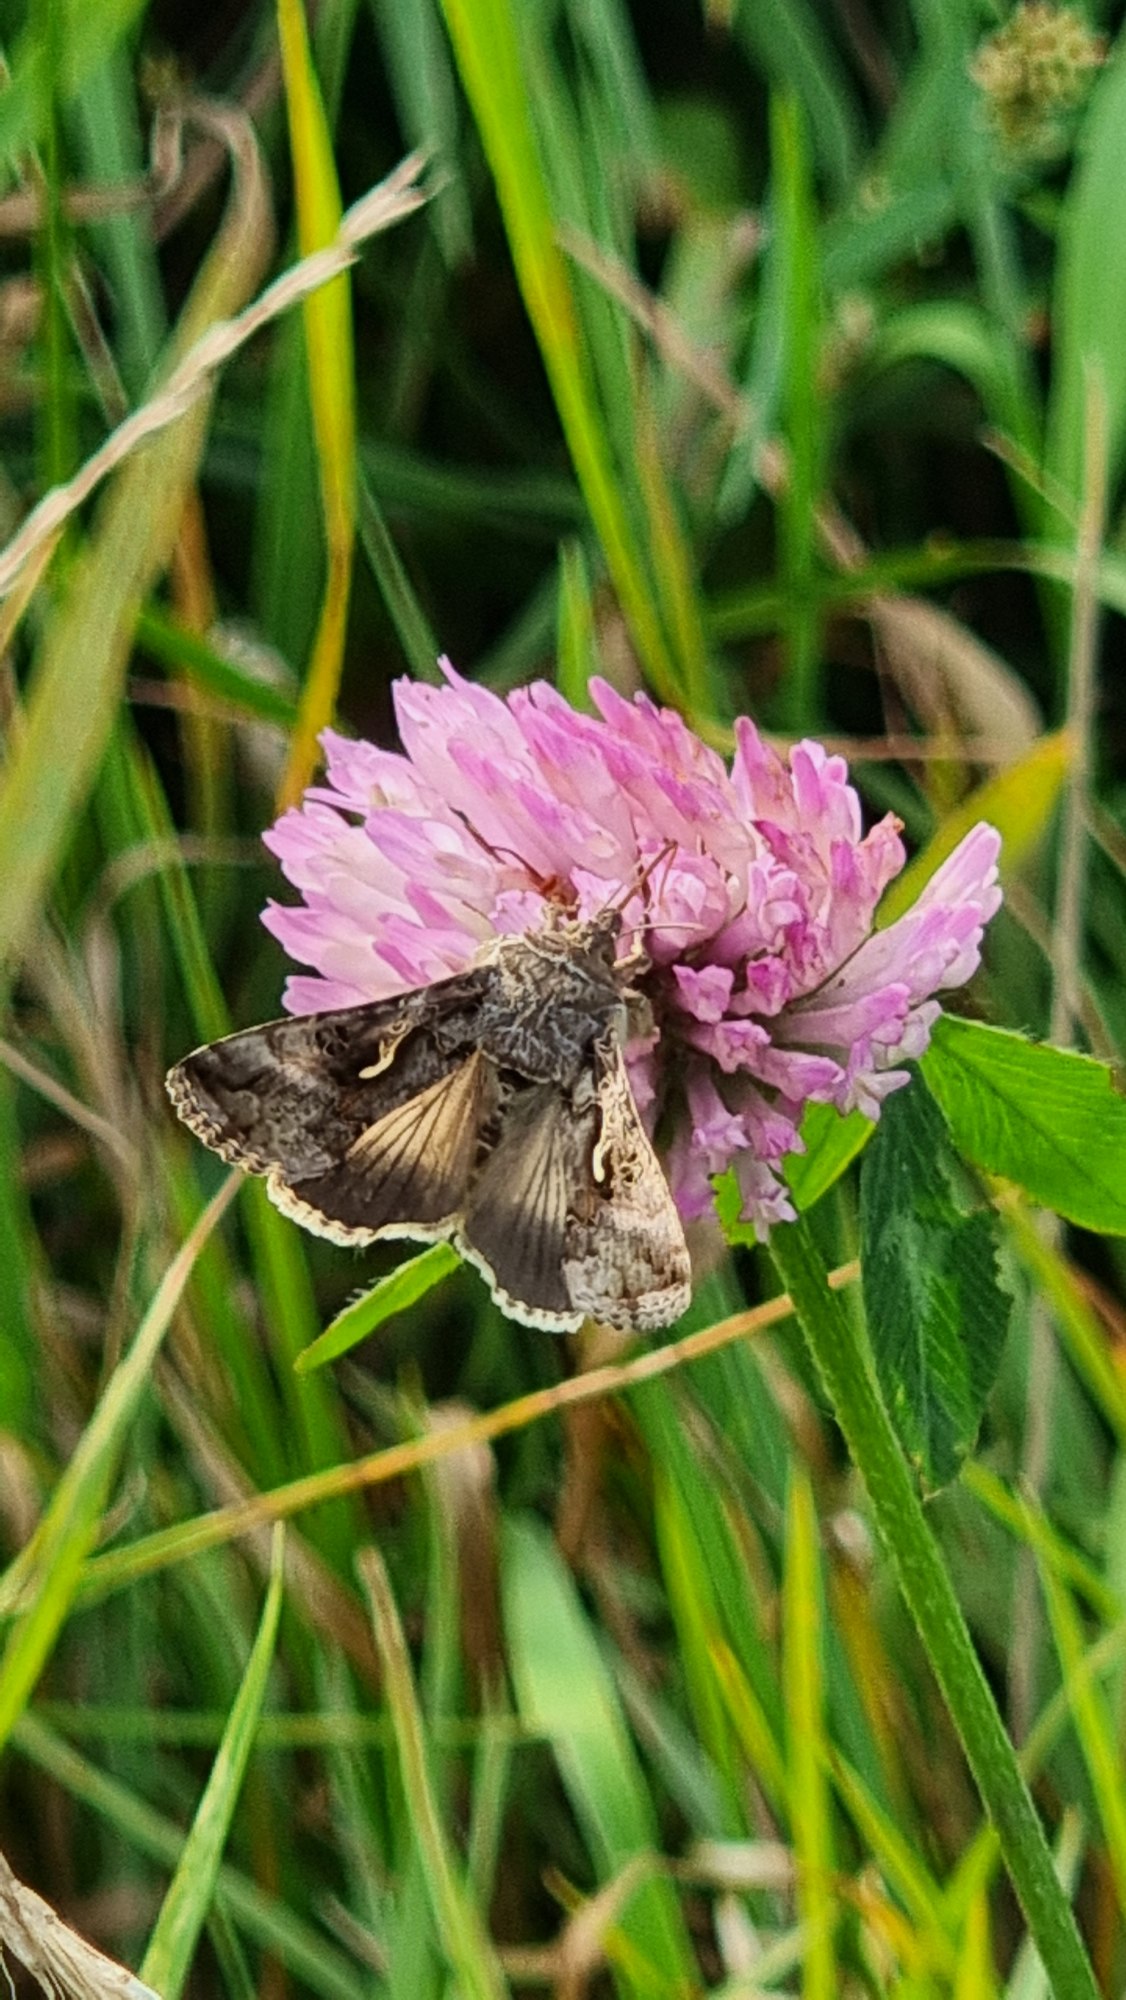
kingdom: Animalia
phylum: Arthropoda
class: Insecta
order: Lepidoptera
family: Noctuidae
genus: Autographa
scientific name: Autographa gamma
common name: Gammaugle
